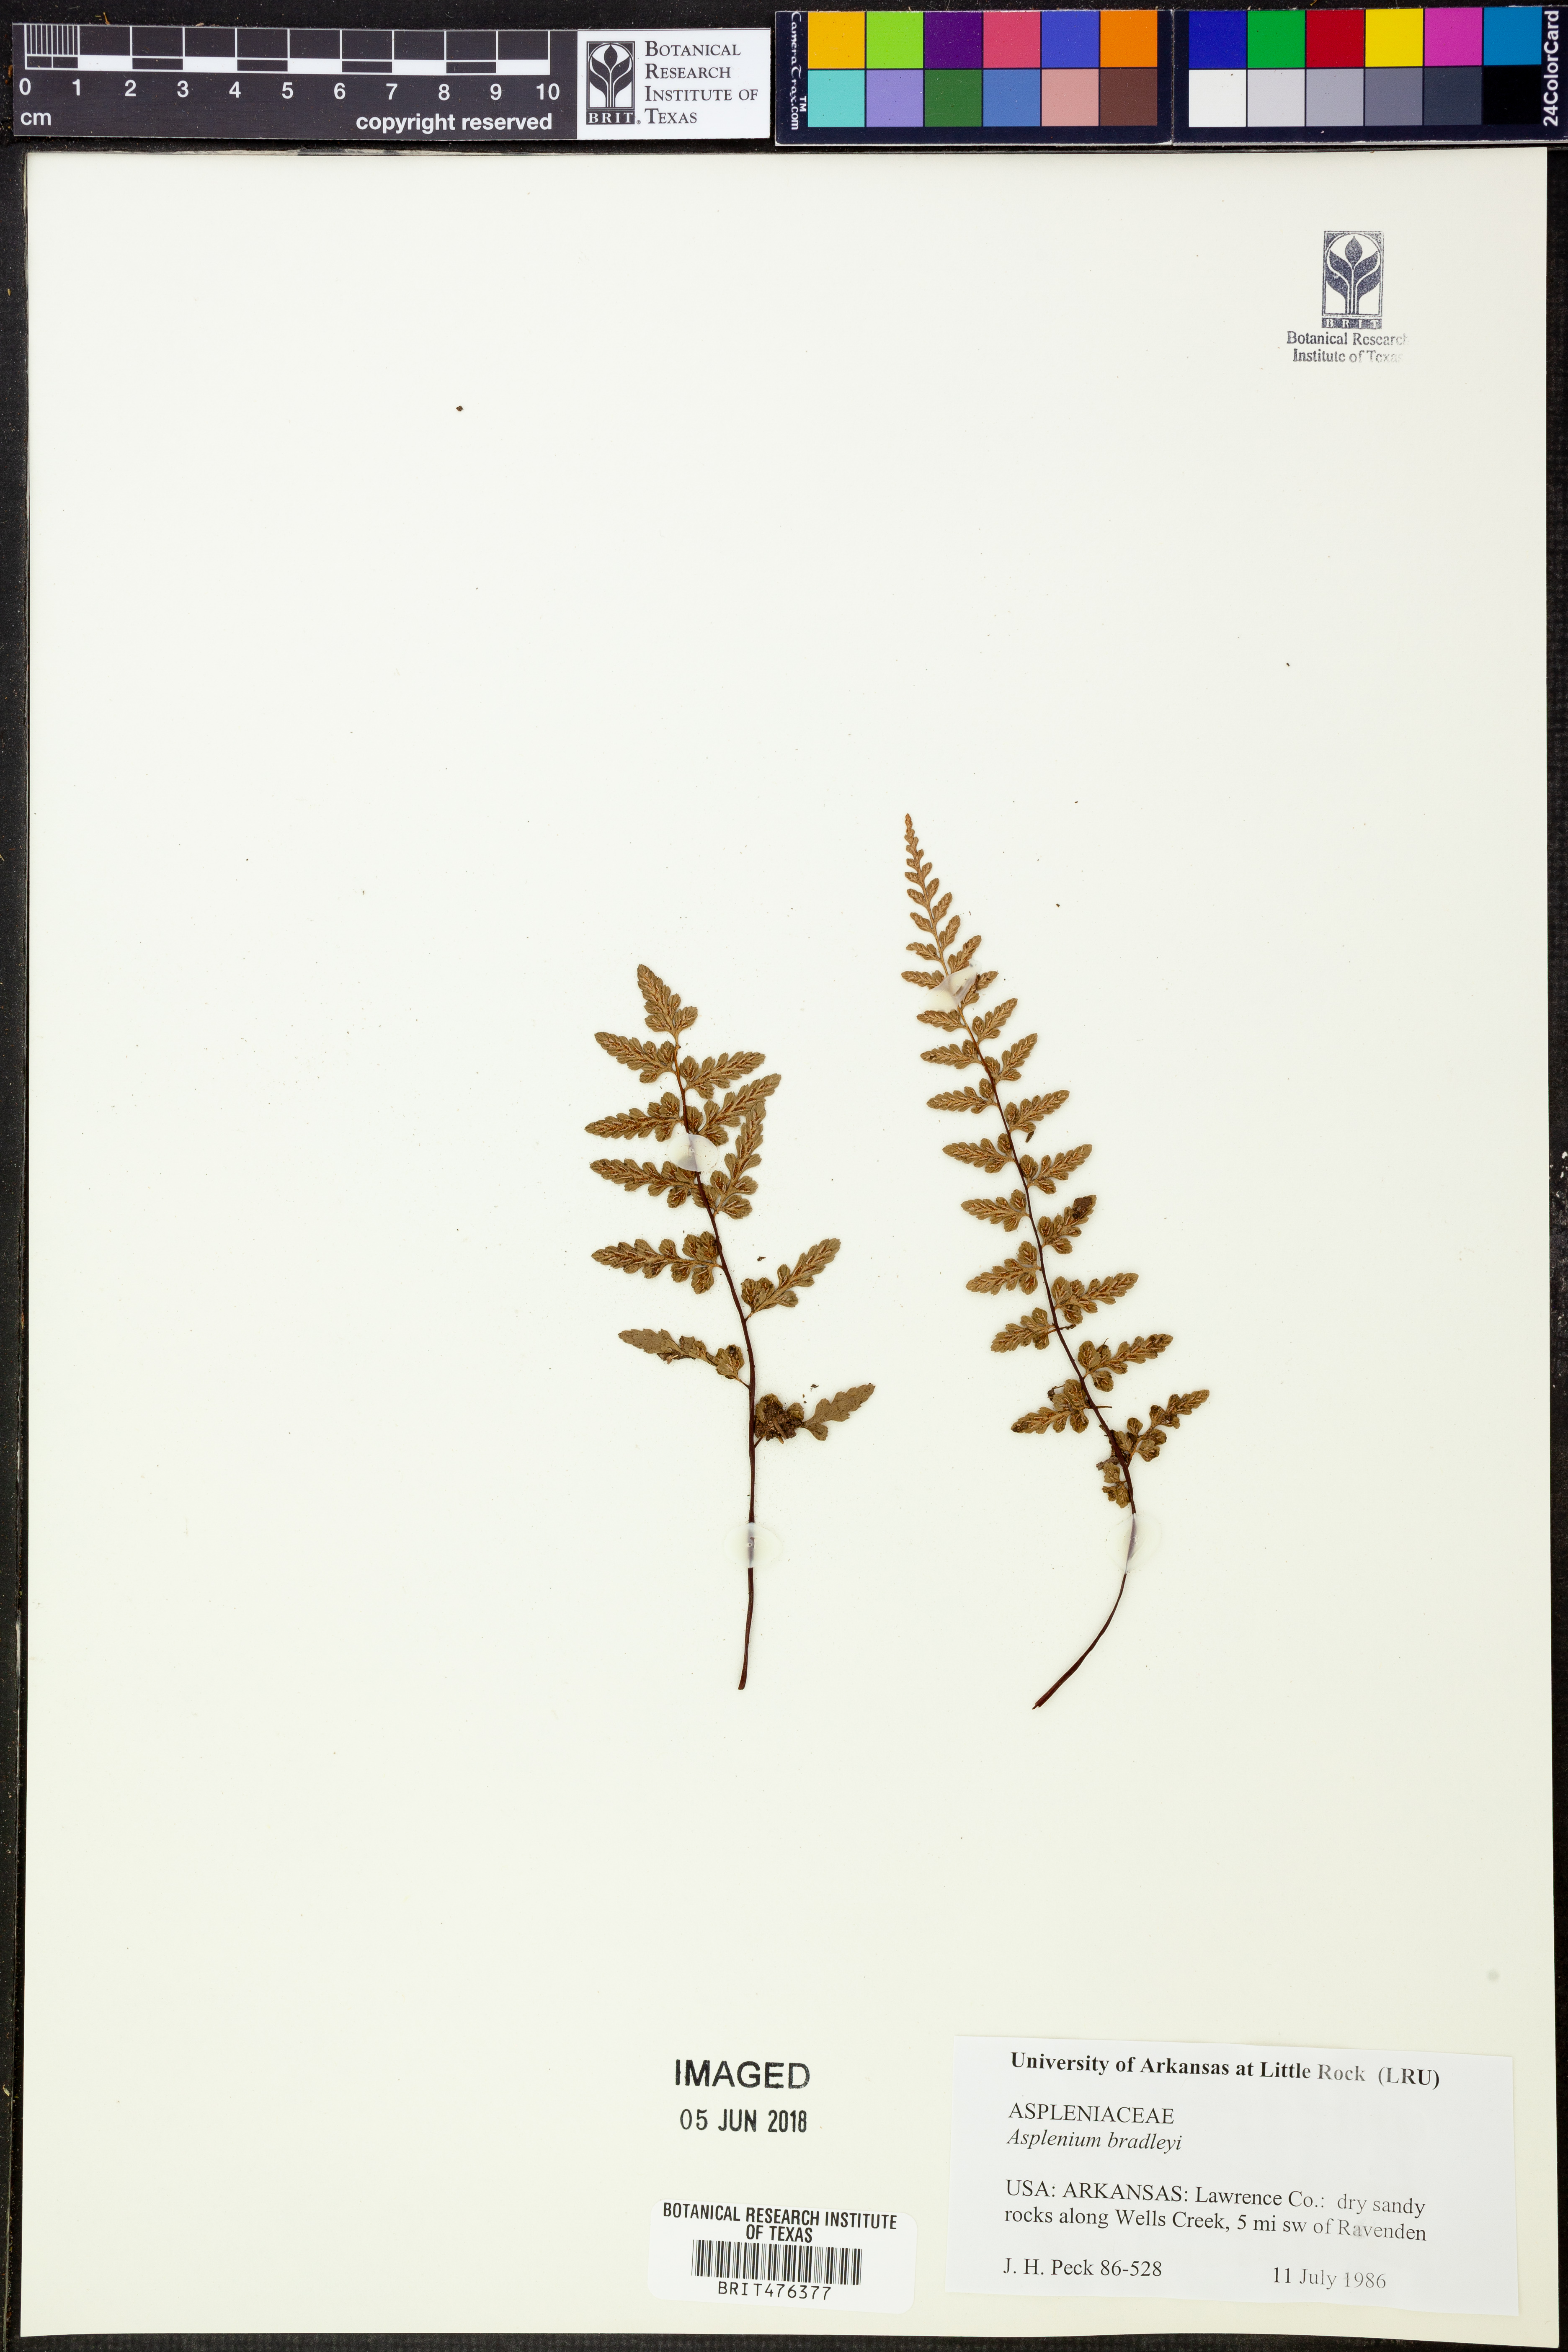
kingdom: Plantae
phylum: Tracheophyta
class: Polypodiopsida
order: Polypodiales
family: Aspleniaceae
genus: Asplenium
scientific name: Asplenium bradleyi
